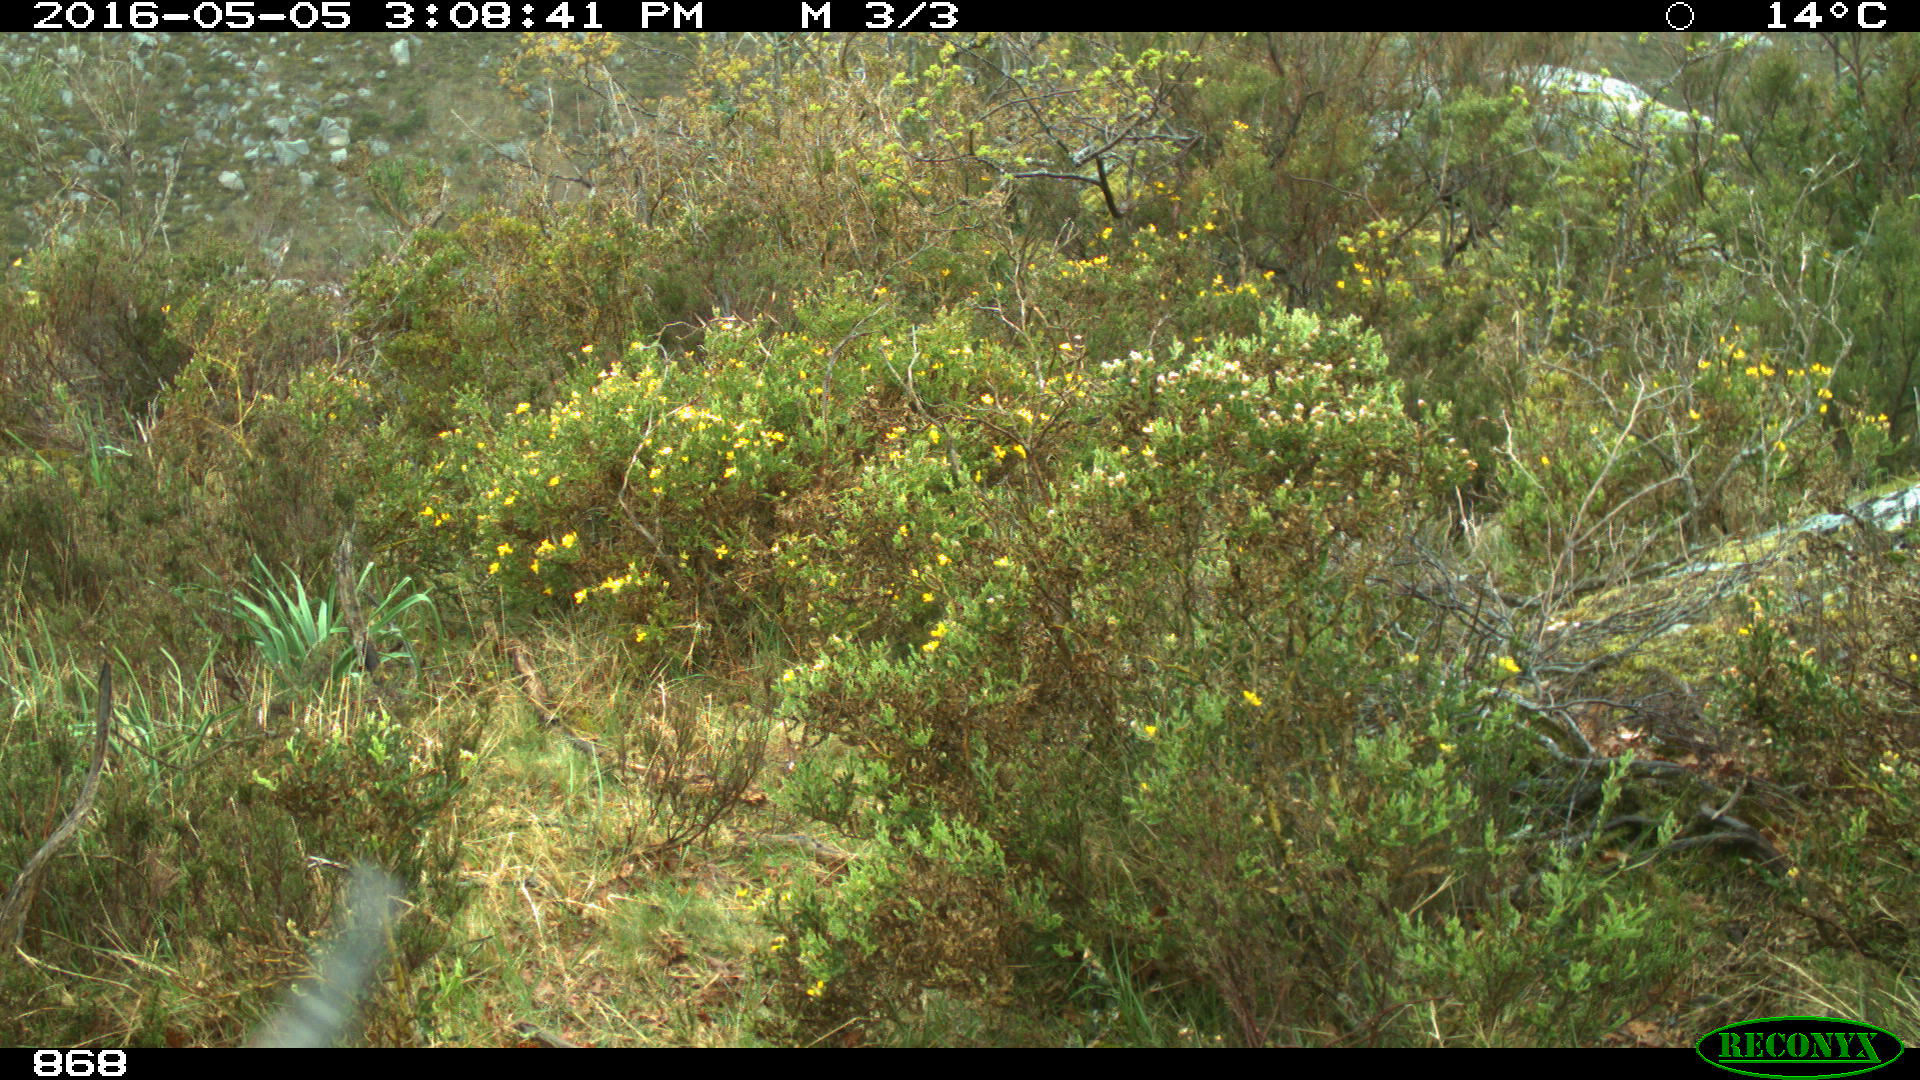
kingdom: Animalia
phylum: Chordata
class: Mammalia
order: Artiodactyla
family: Bovidae
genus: Bos
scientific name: Bos taurus
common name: Domesticated cattle
